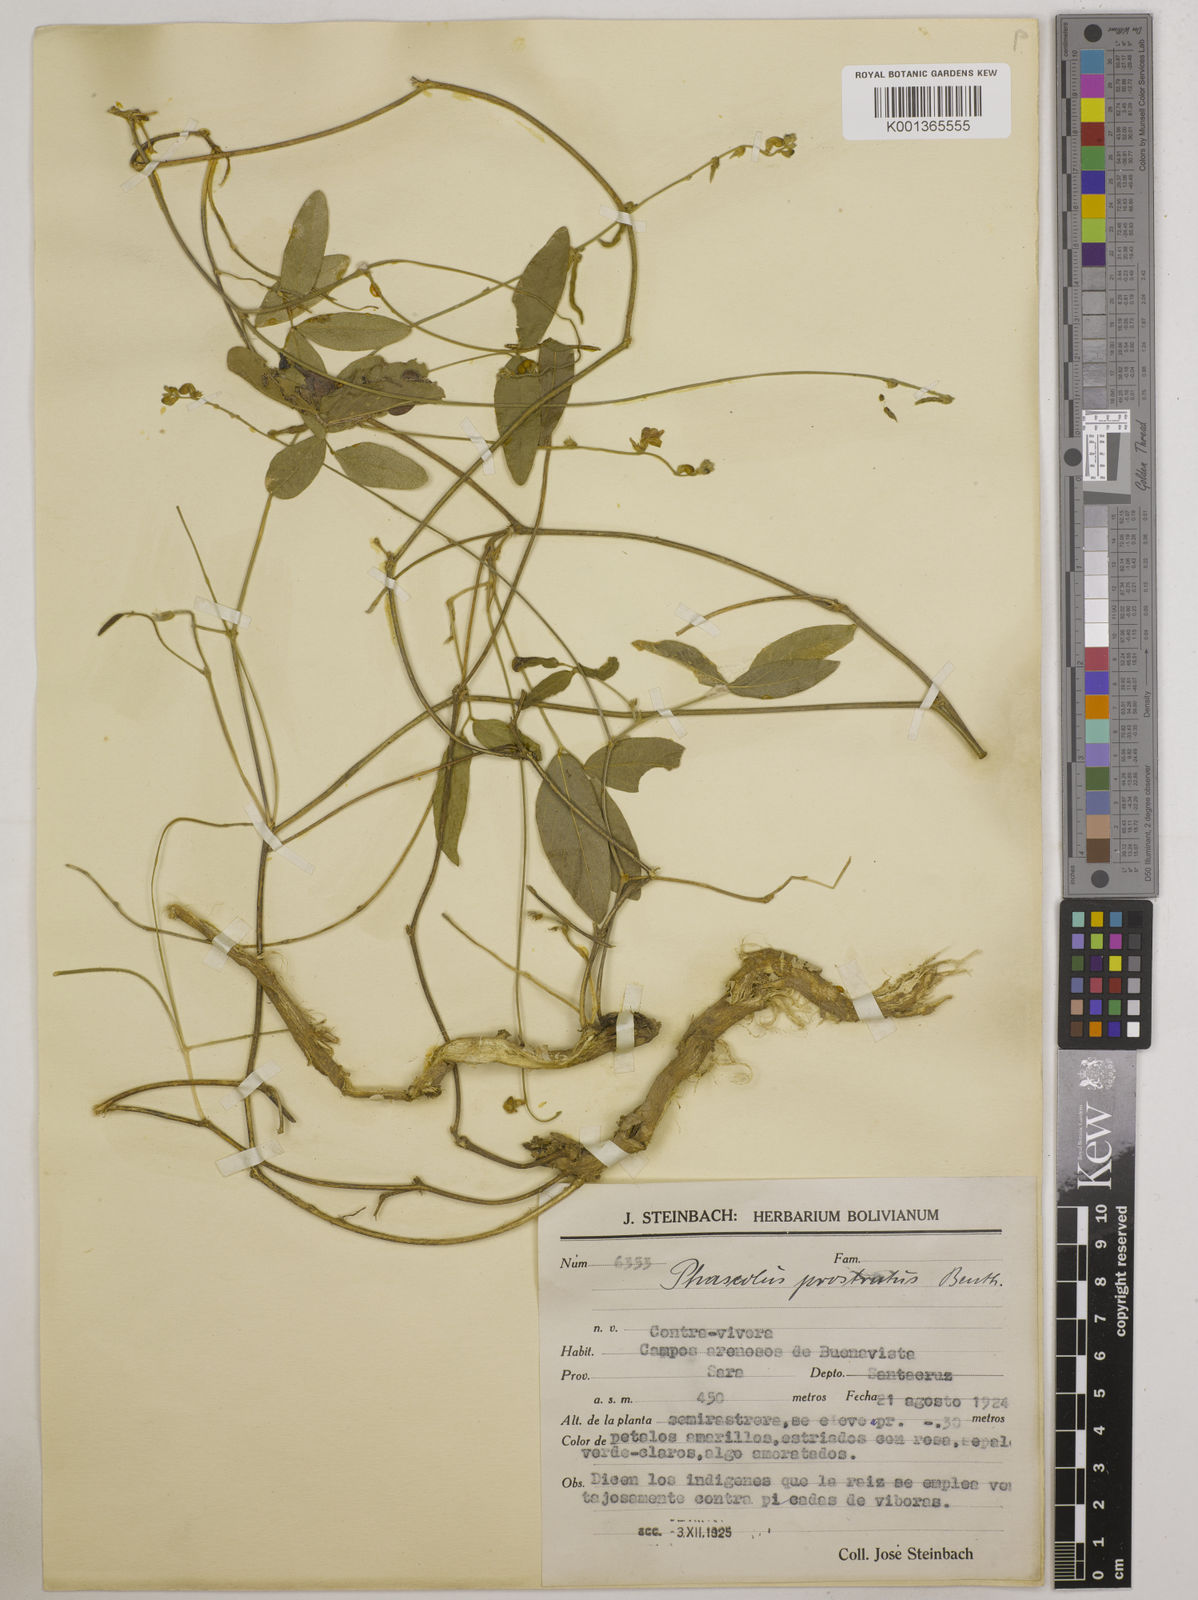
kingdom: Plantae
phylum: Tracheophyta
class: Magnoliopsida
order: Fabales
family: Fabaceae
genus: Macroptilium
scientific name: Macroptilium prostratum
